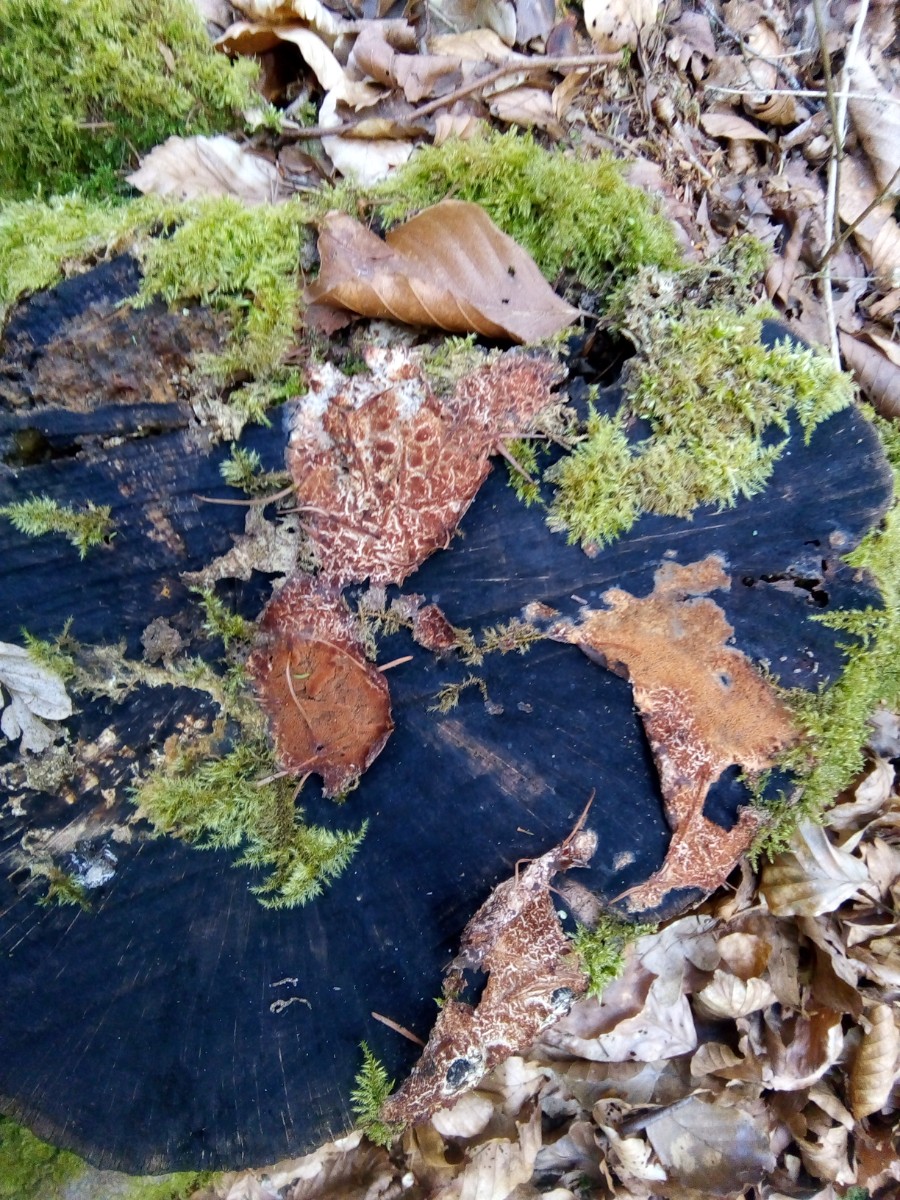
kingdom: Fungi
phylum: Basidiomycota
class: Agaricomycetes
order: Corticiales
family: Corticiaceae
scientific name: Corticiaceae
